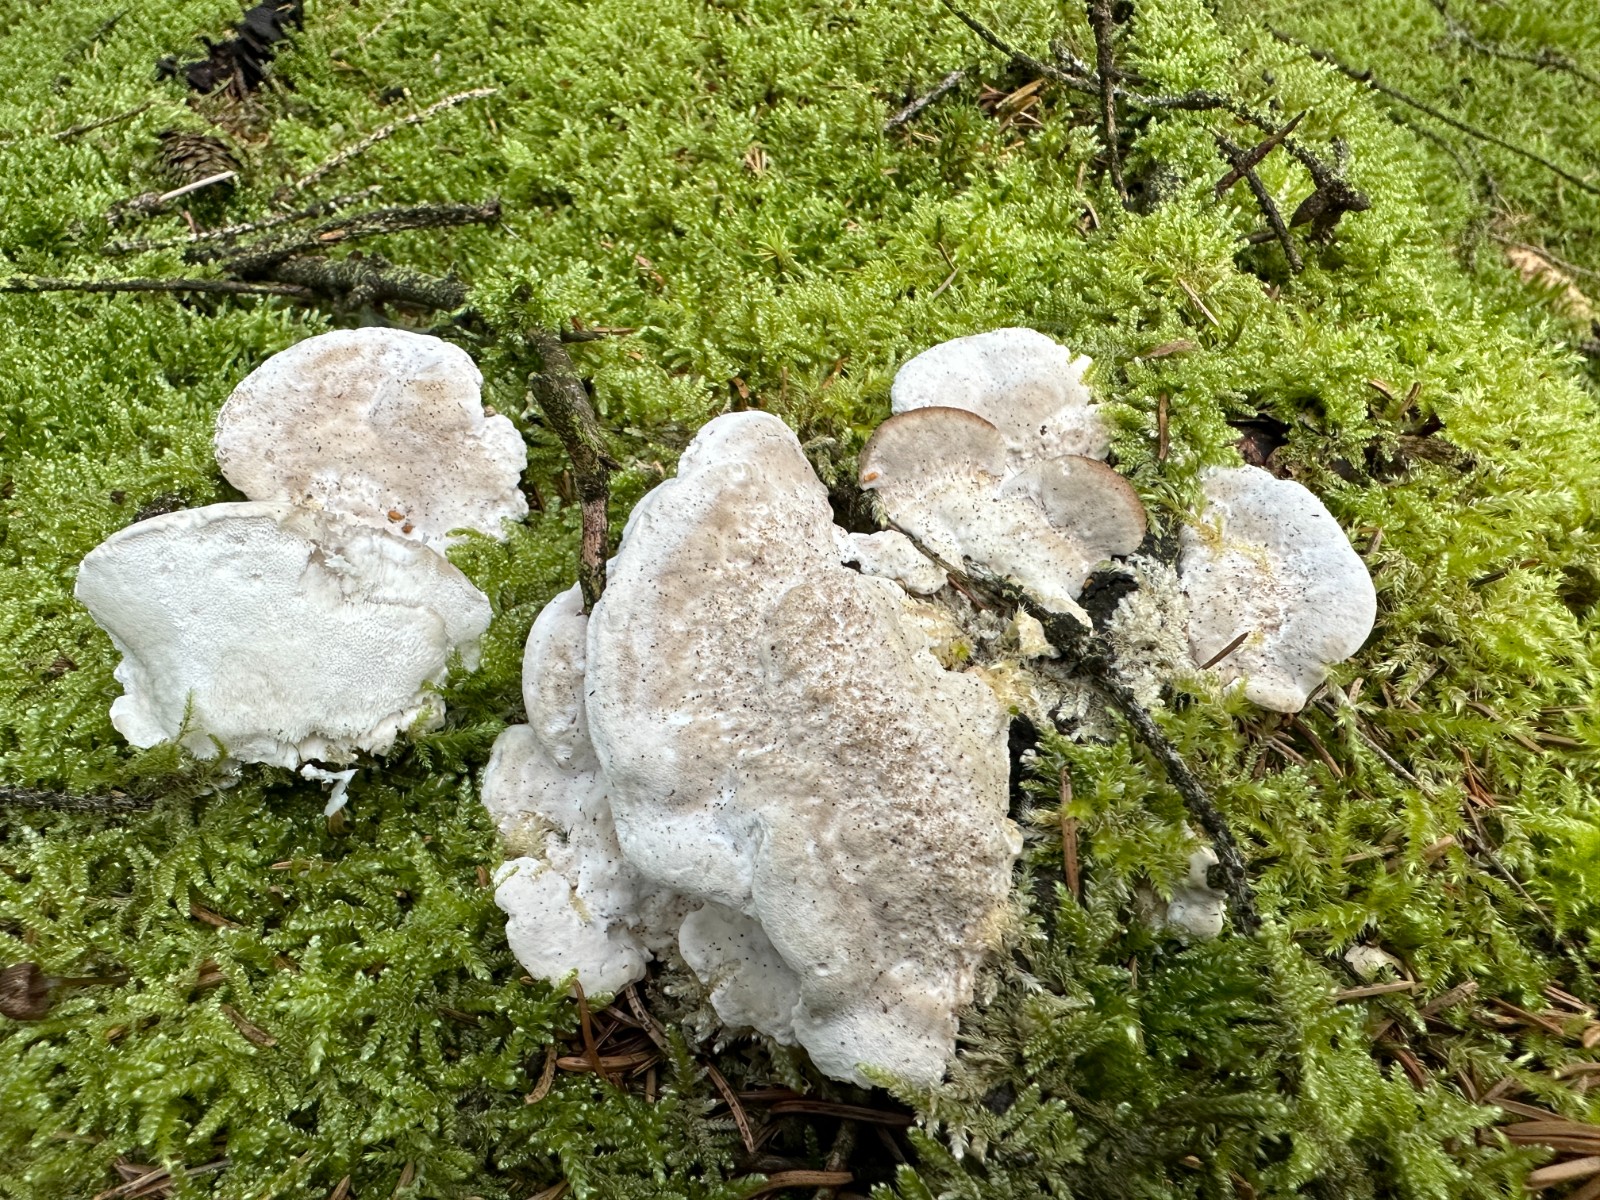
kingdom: Fungi
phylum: Basidiomycota
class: Agaricomycetes
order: Polyporales
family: Dacryobolaceae
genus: Postia
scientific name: Postia tephroleuca
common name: grålig kødporesvamp
